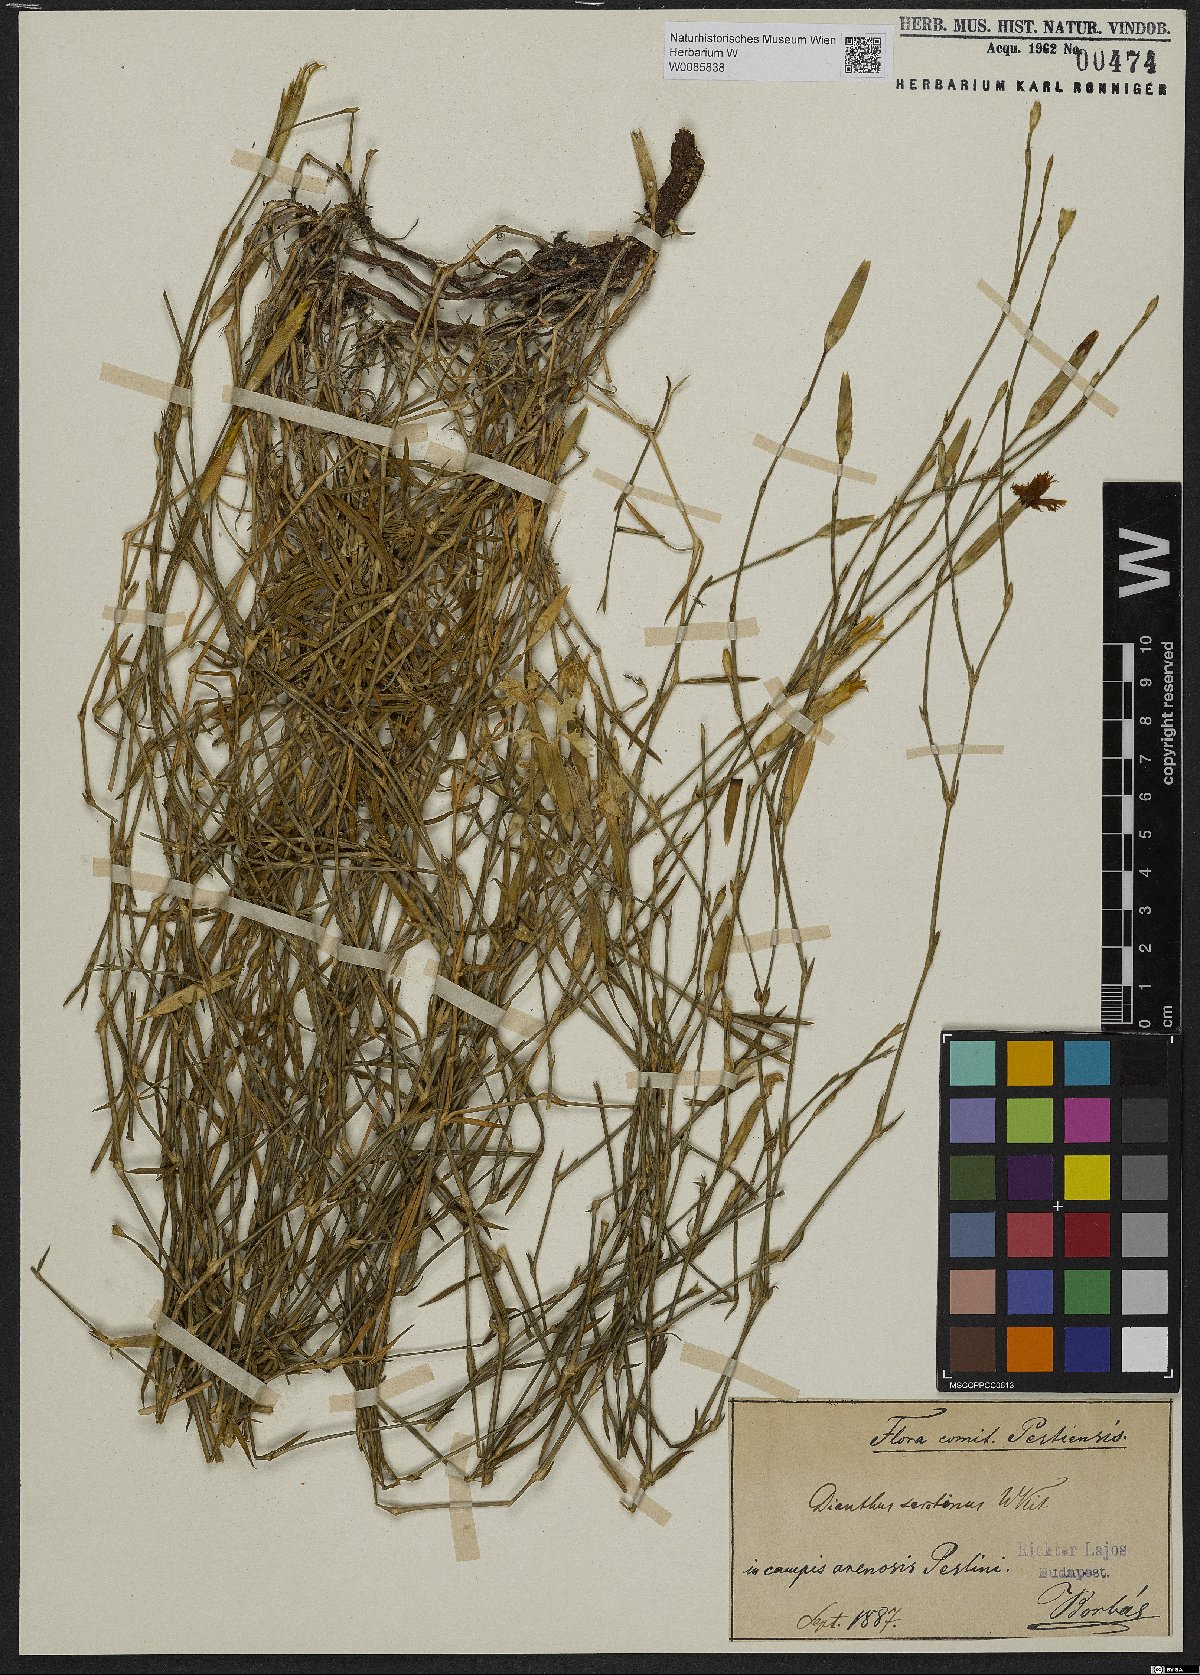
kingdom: Plantae
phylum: Tracheophyta
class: Magnoliopsida
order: Caryophyllales
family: Caryophyllaceae
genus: Dianthus
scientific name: Dianthus serotinus
